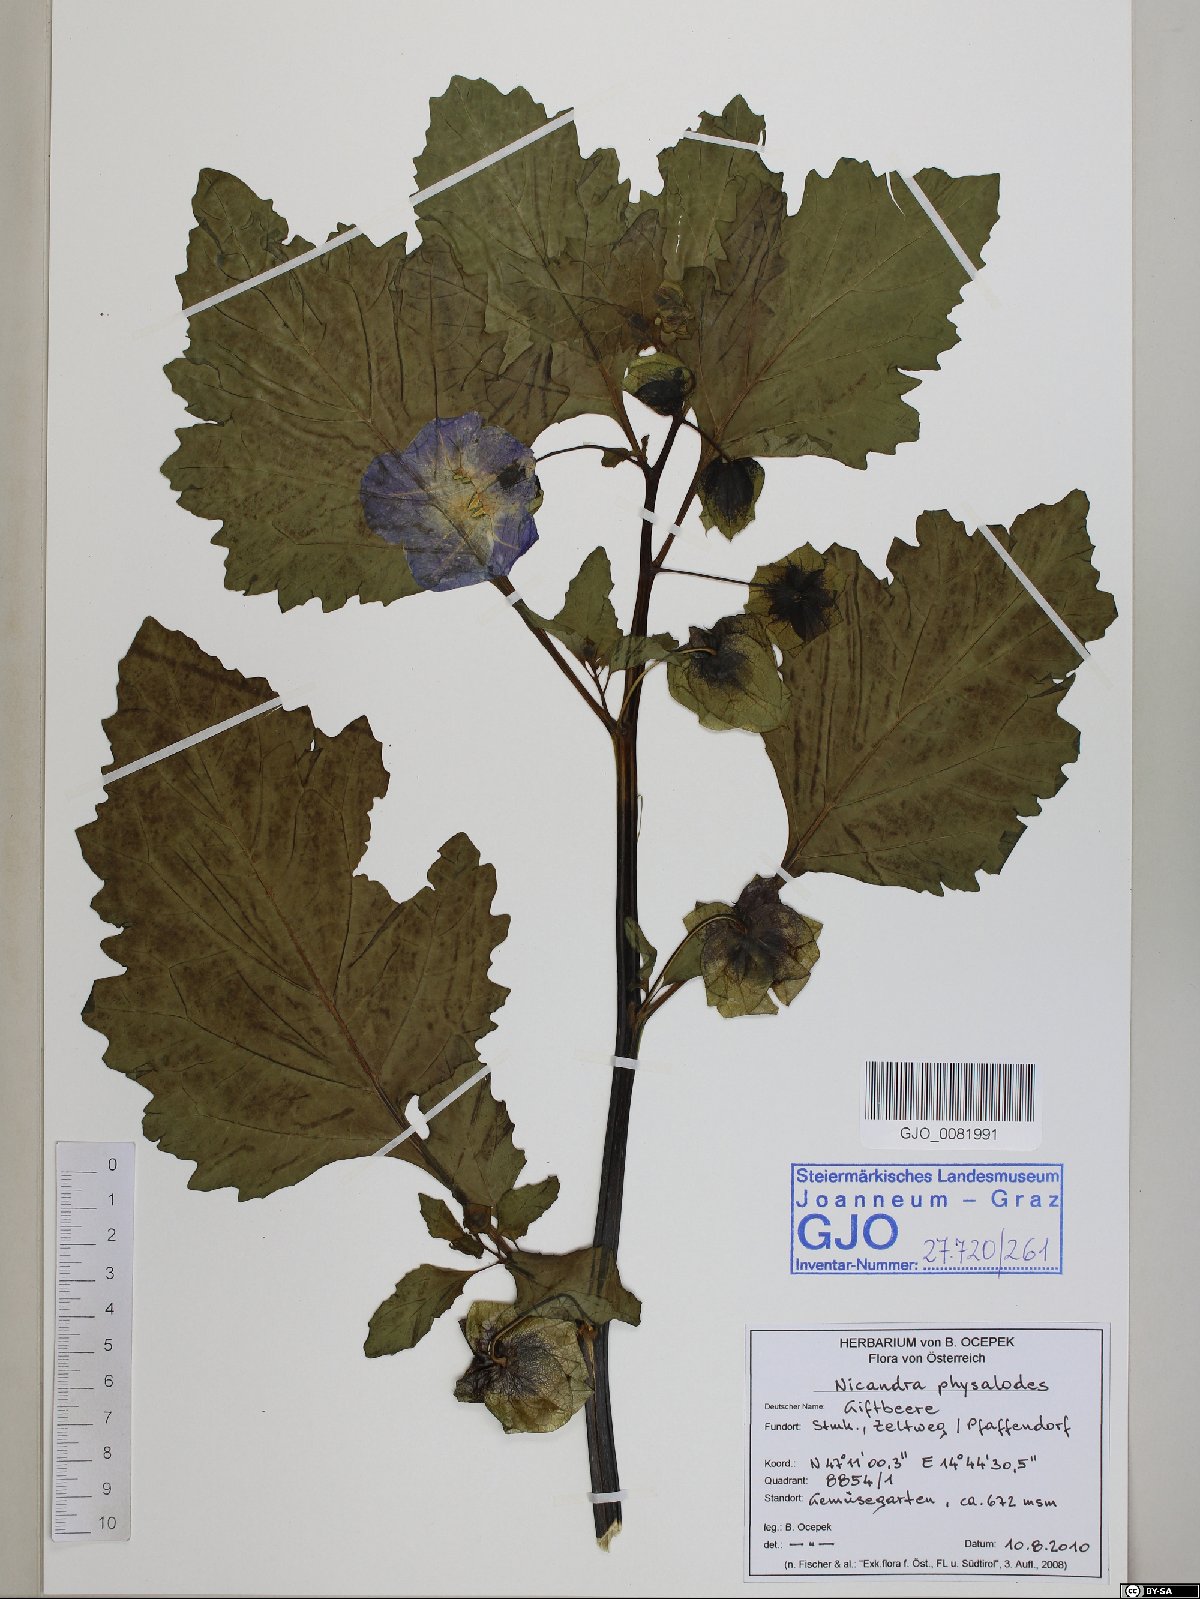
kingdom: Plantae
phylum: Tracheophyta
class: Magnoliopsida
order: Solanales
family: Solanaceae
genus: Nicandra
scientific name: Nicandra physalodes
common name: Apple-of-peru
